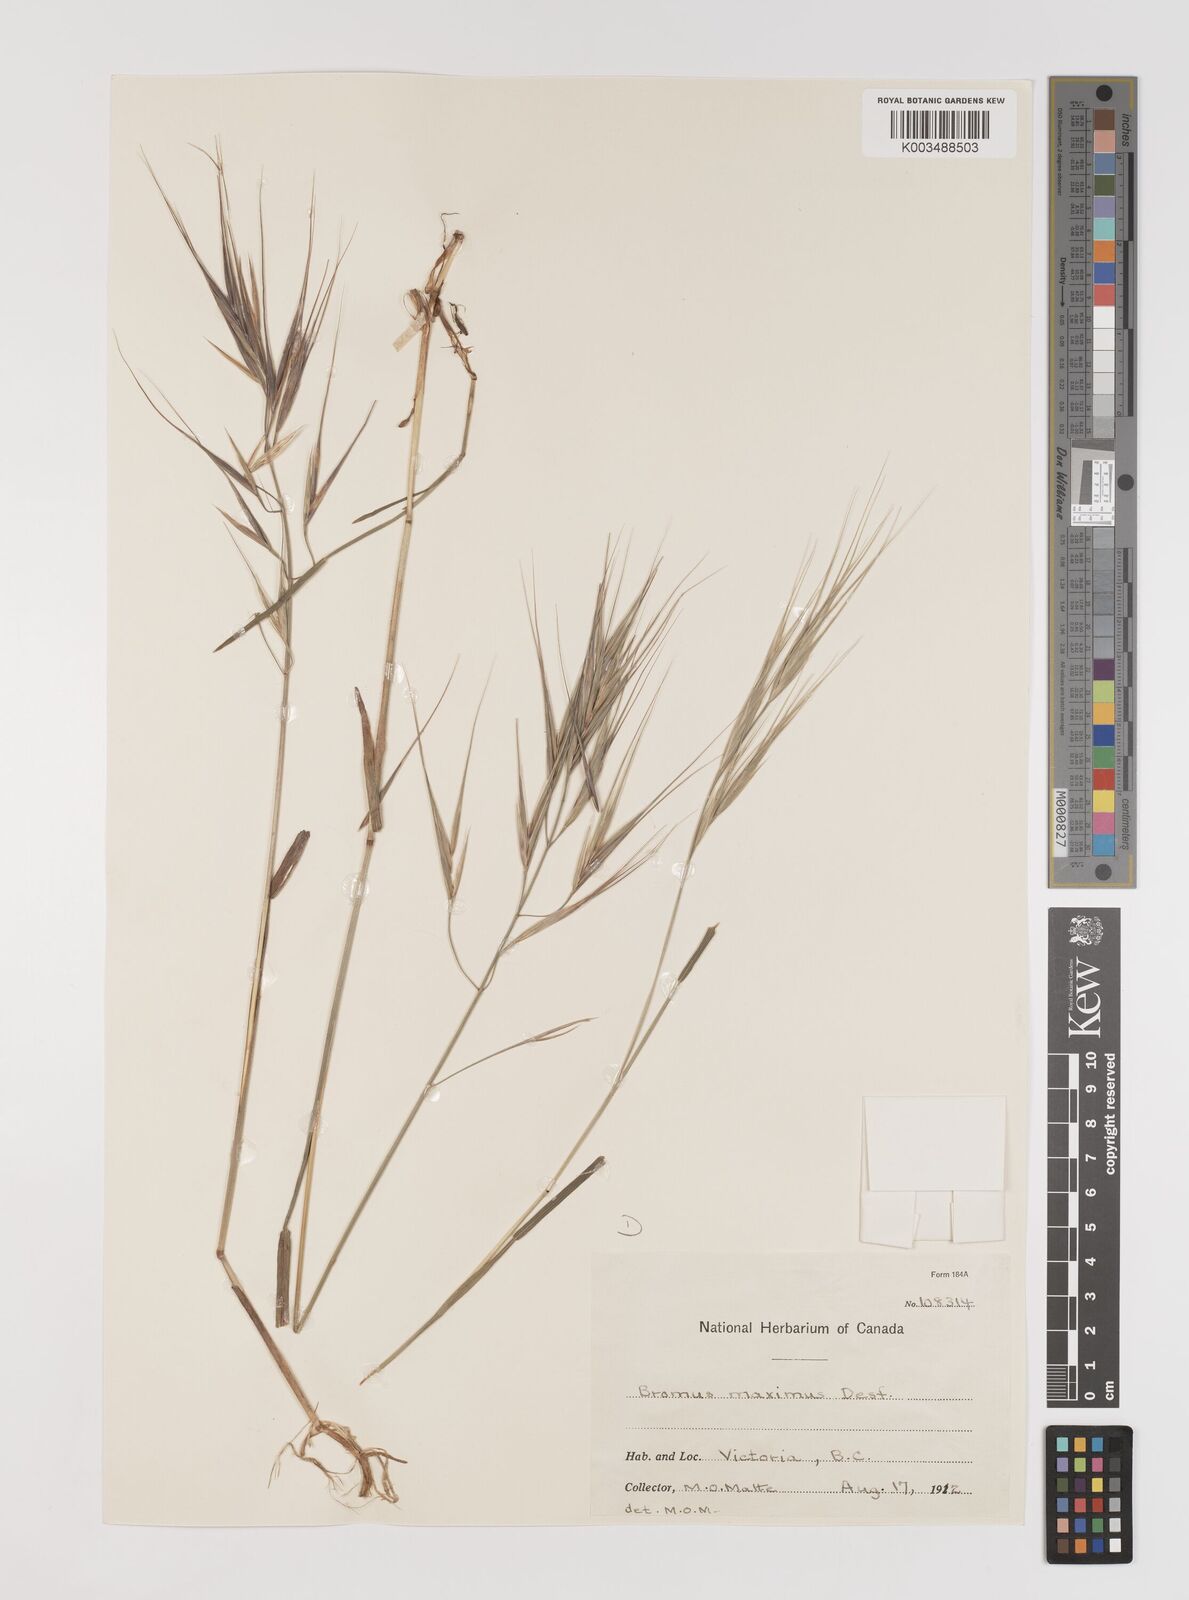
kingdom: Plantae
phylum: Tracheophyta
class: Liliopsida
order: Poales
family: Poaceae
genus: Bromus
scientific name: Bromus diandrus
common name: Ripgut brome
